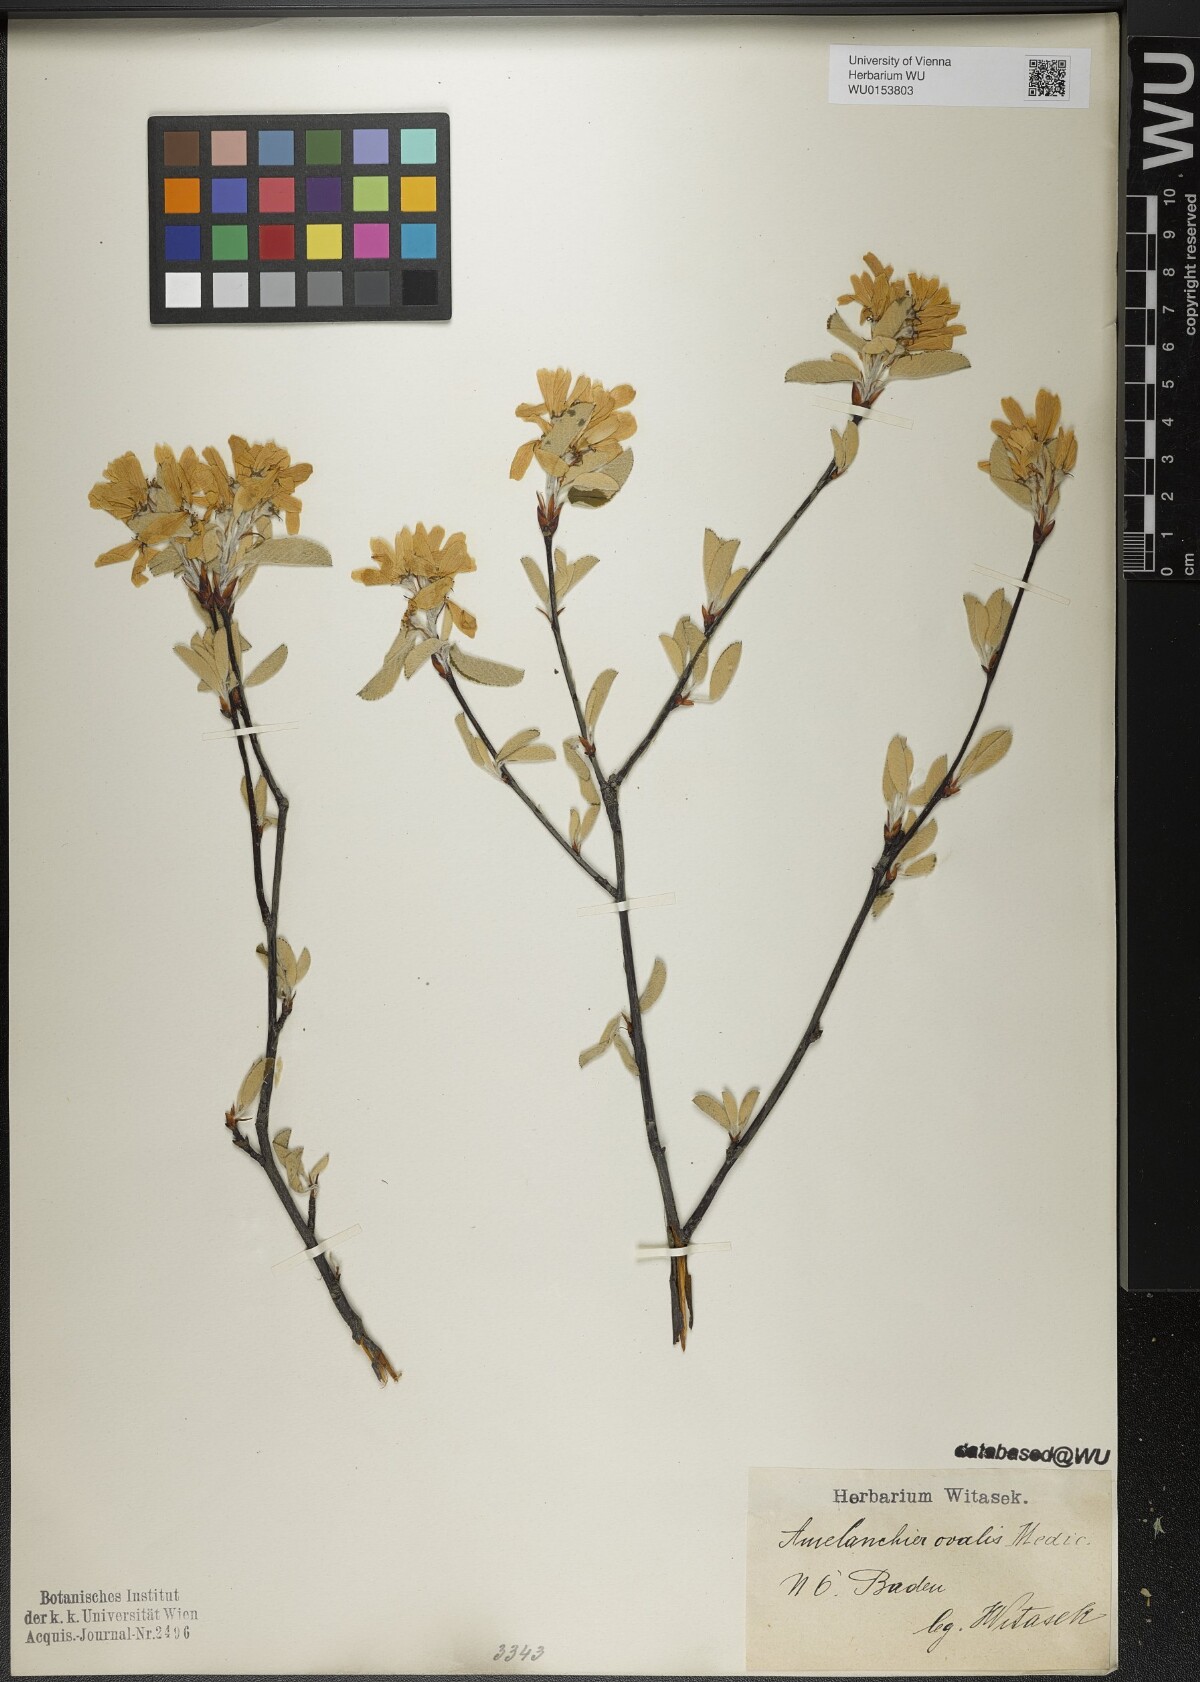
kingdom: Plantae
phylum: Tracheophyta
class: Magnoliopsida
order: Rosales
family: Rosaceae
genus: Amelanchier
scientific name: Amelanchier ovalis
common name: Serviceberry
